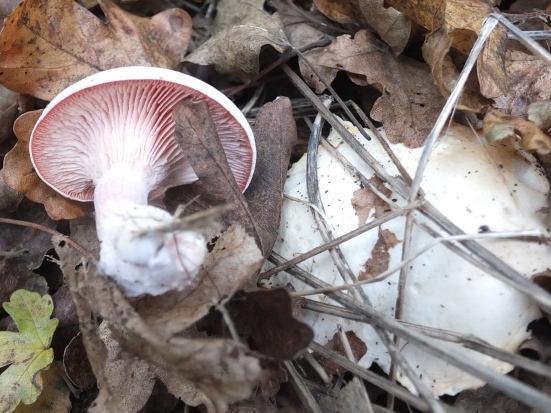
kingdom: Fungi
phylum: Basidiomycota
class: Agaricomycetes
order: Agaricales
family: Tricholomataceae
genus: Pseudoclitopilus
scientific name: Pseudoclitopilus rhodoleucus
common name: rosabladet tragtridderhat
